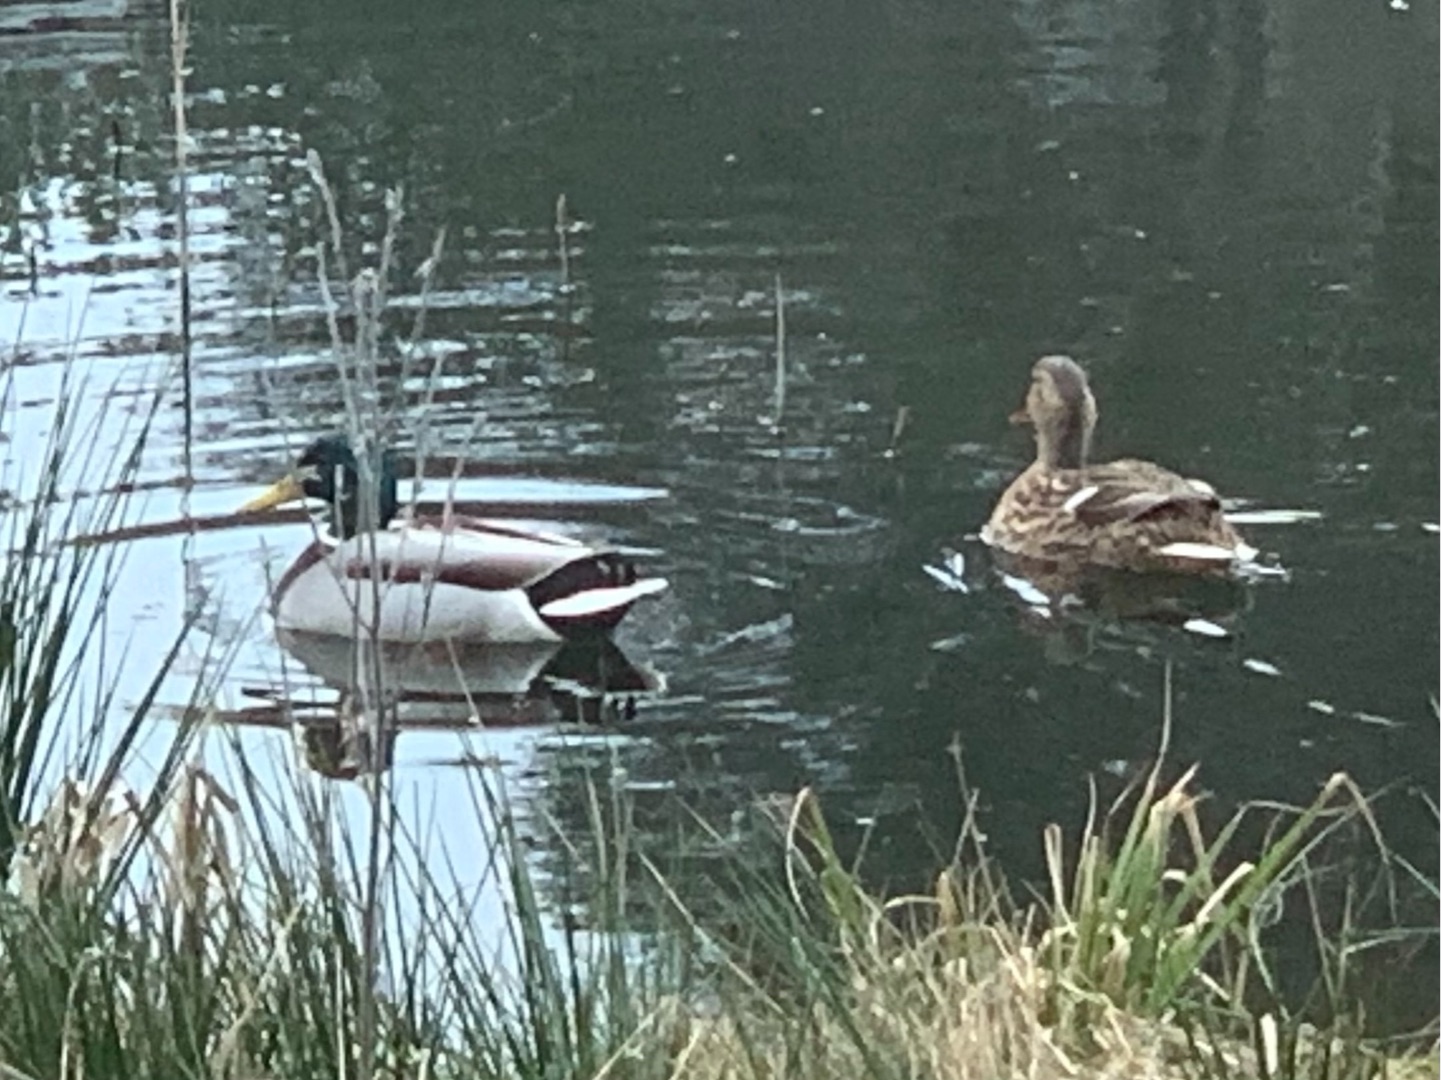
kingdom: Animalia
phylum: Chordata
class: Aves
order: Anseriformes
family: Anatidae
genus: Anas
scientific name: Anas platyrhynchos
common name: Gråand
